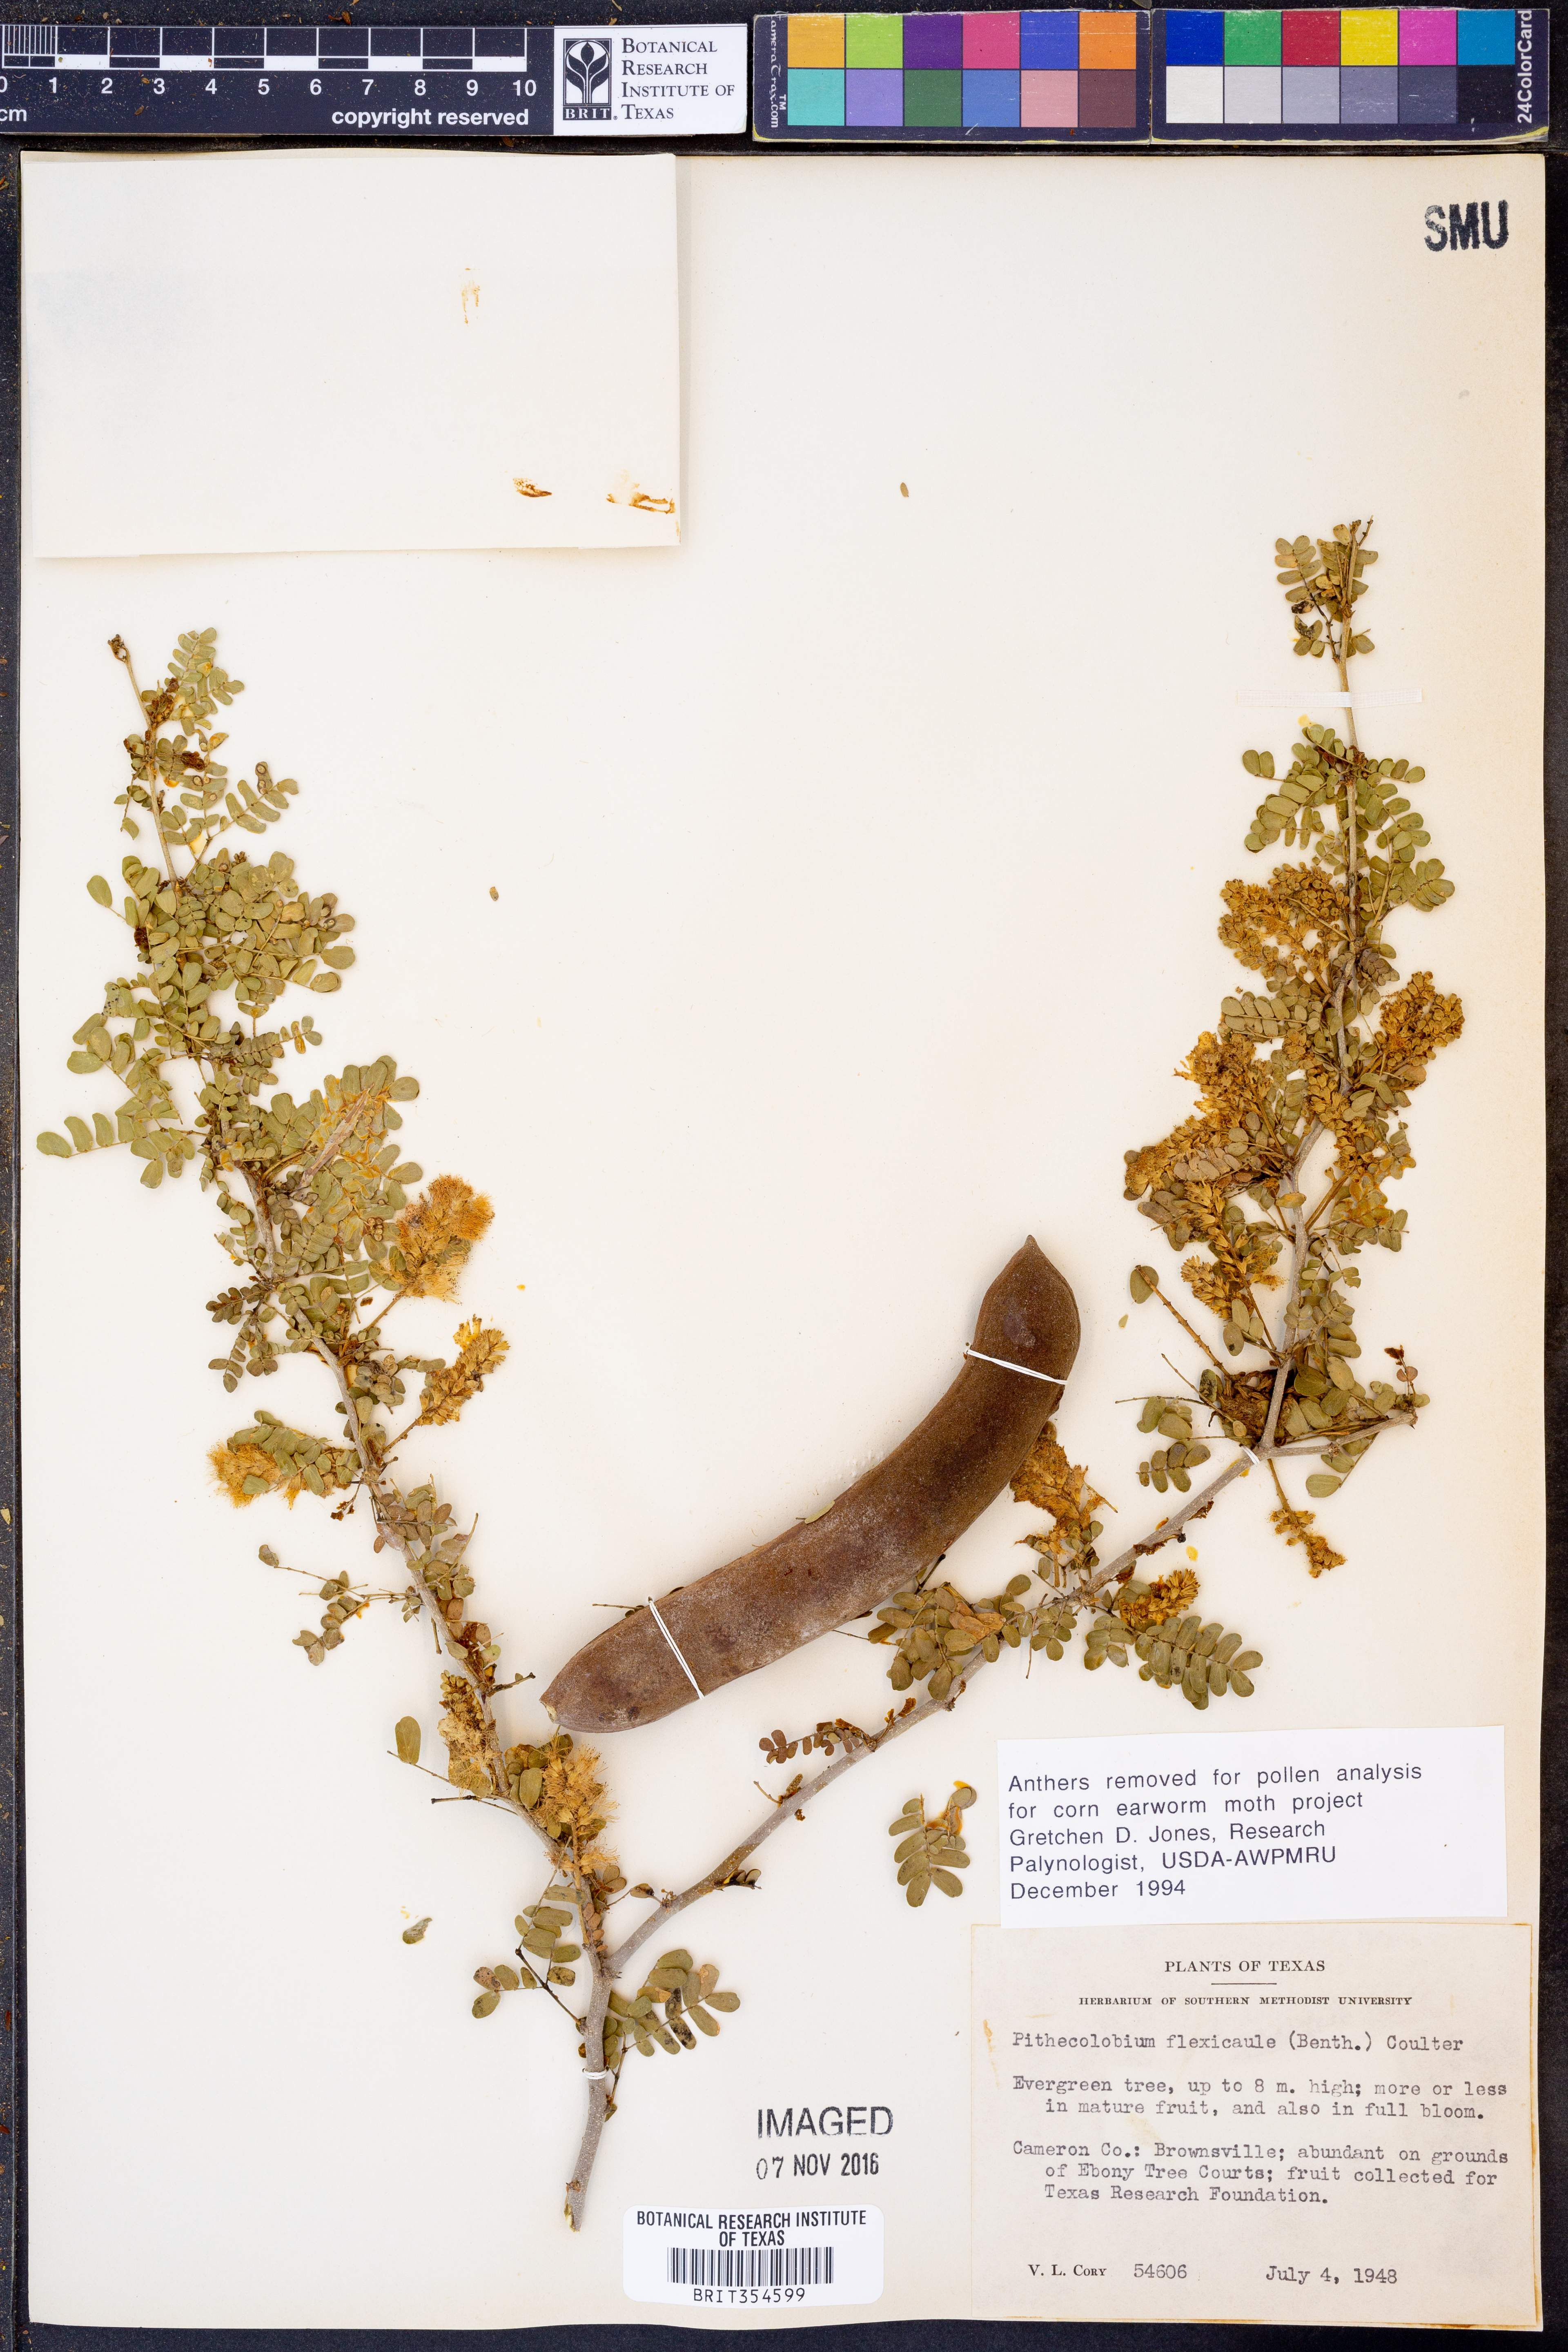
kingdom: Plantae
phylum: Tracheophyta
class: Magnoliopsida
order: Fabales
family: Fabaceae
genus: Ebenopsis
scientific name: Ebenopsis ebano
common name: Ebony blackbead
